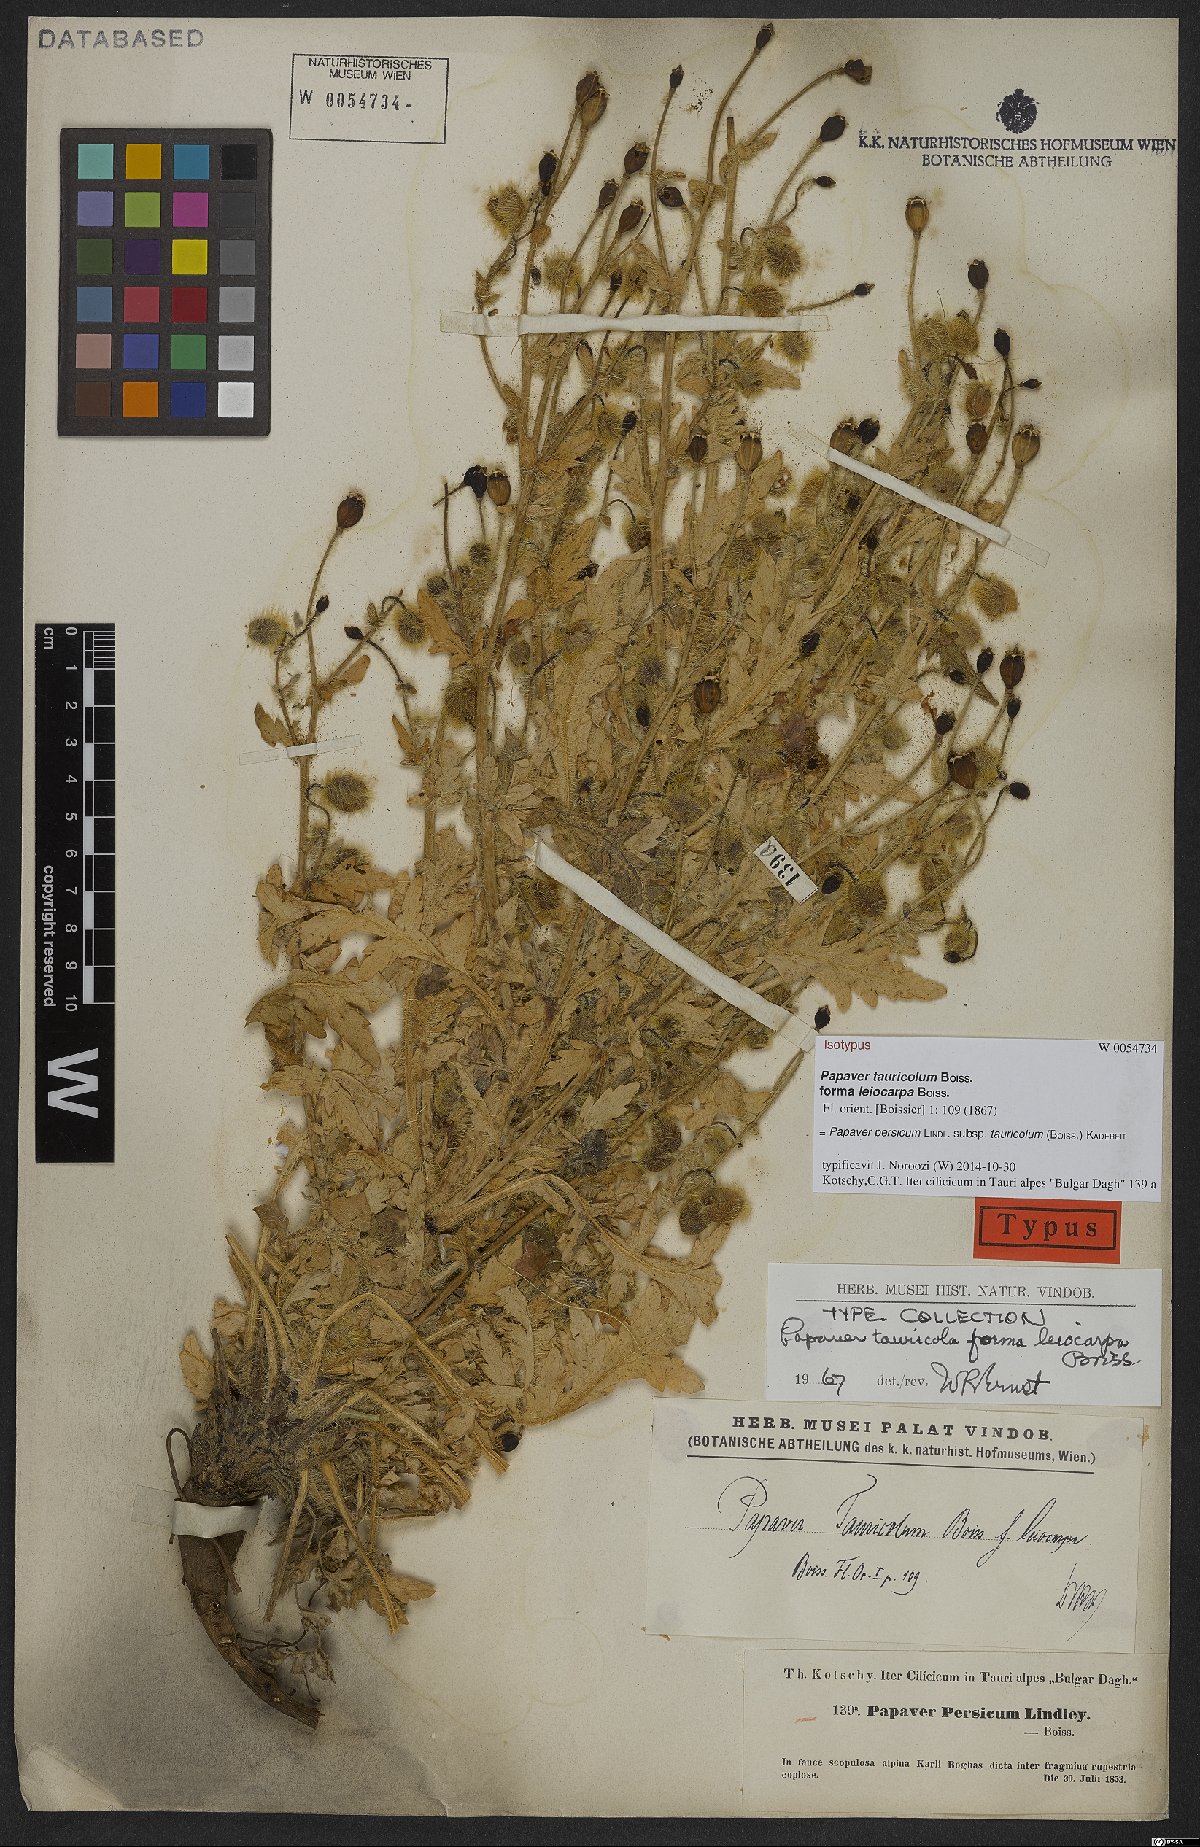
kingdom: Plantae
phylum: Tracheophyta
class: Magnoliopsida
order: Ranunculales
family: Papaveraceae
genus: Papaver
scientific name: Papaver persicum
